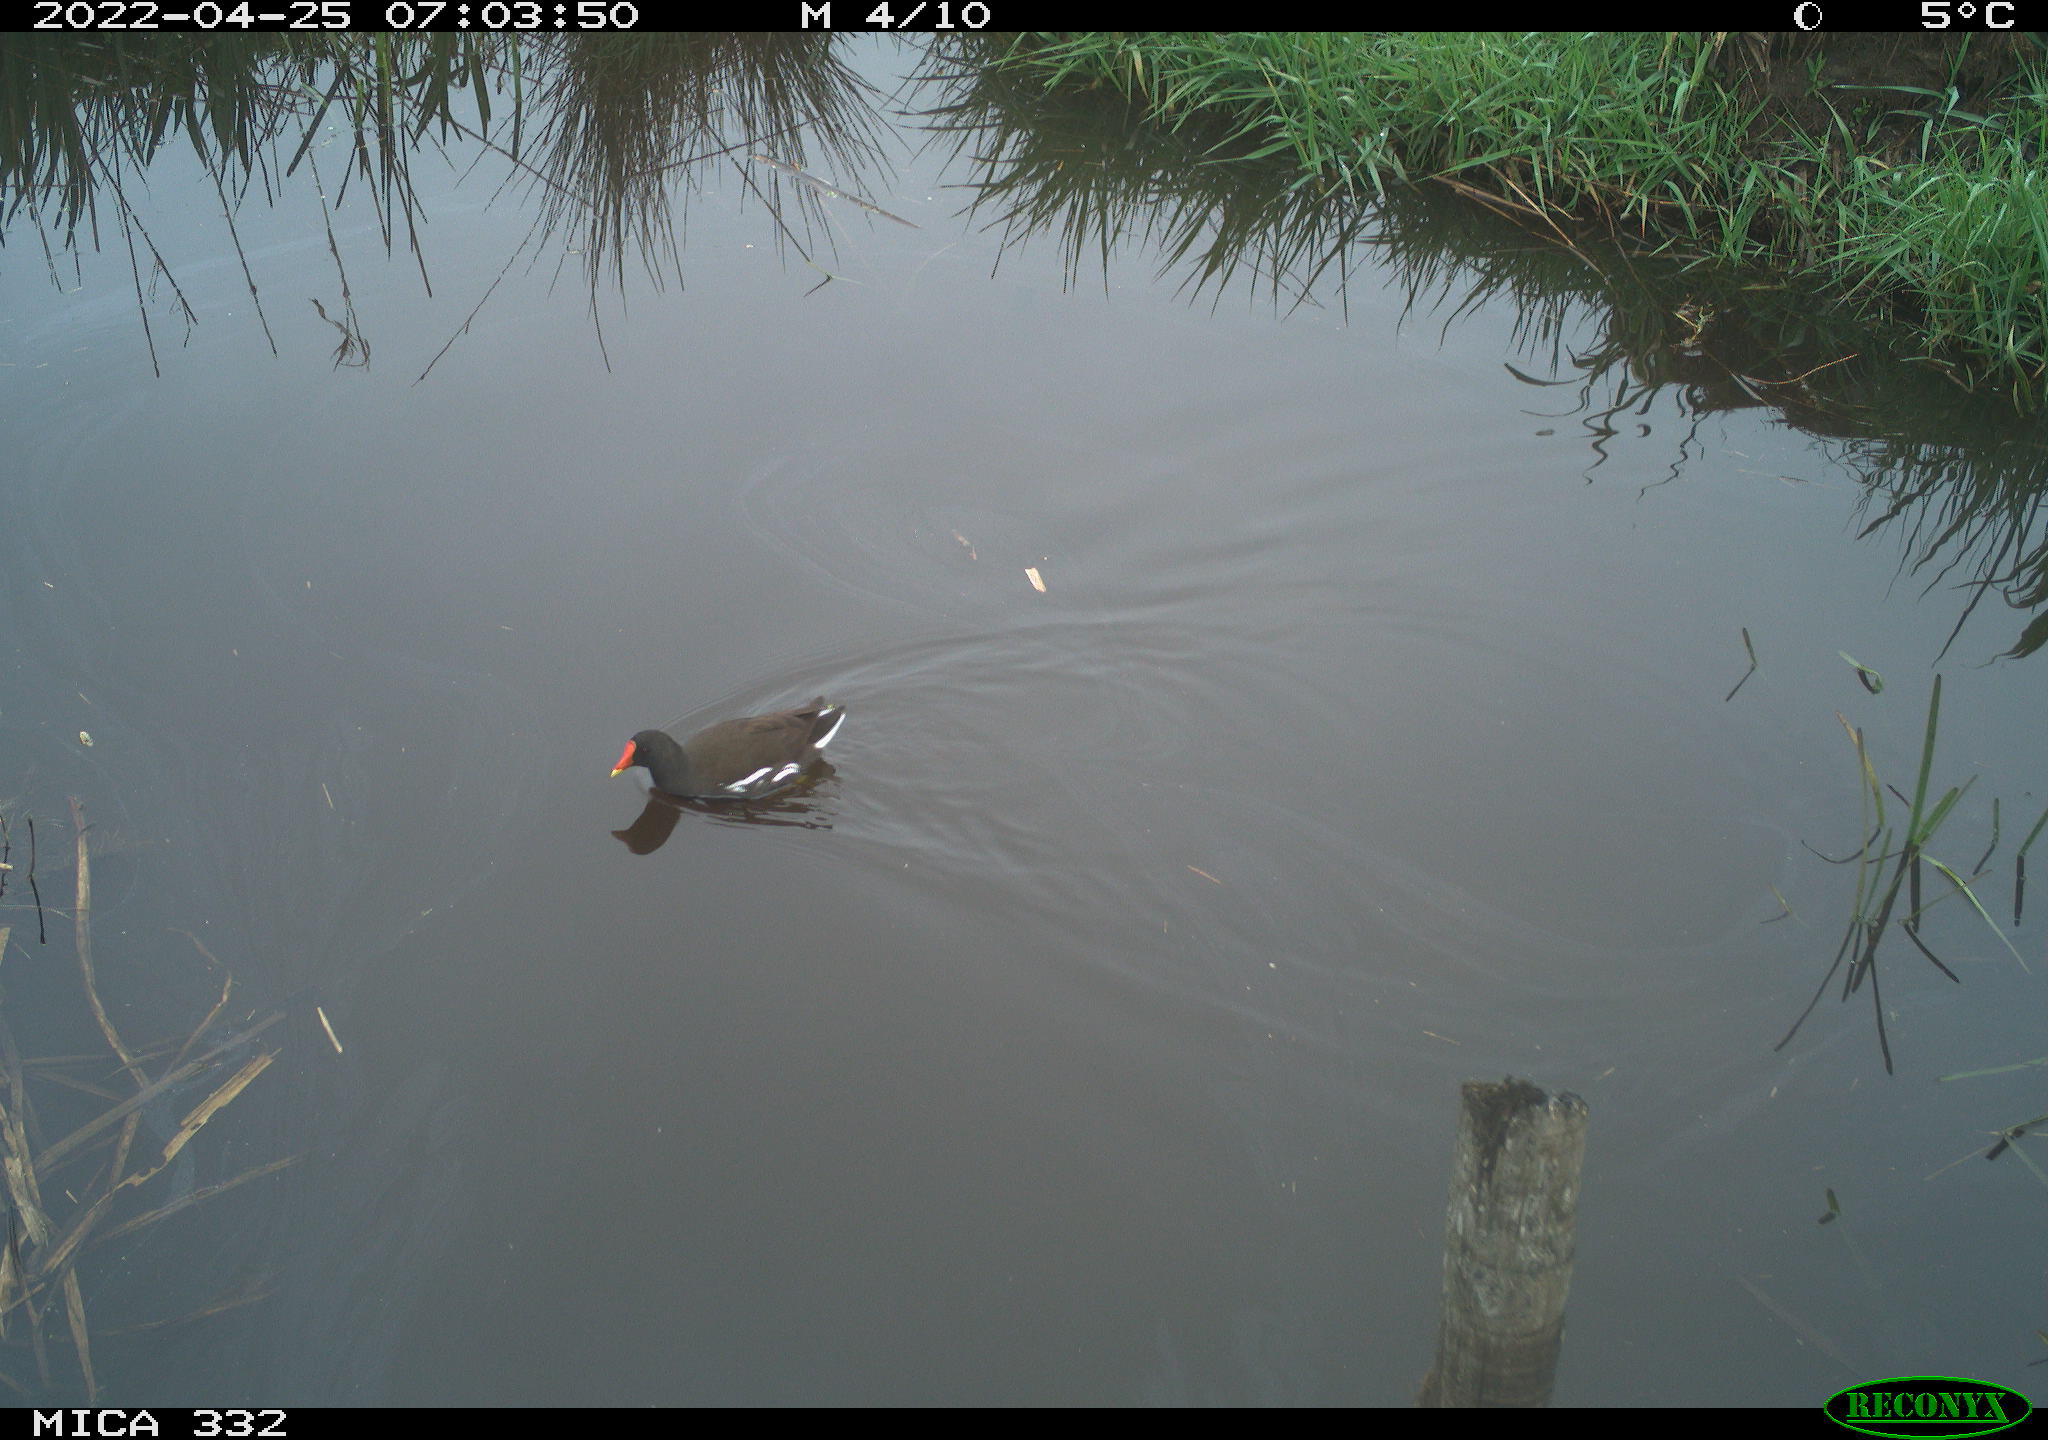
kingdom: Animalia
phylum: Chordata
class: Aves
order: Gruiformes
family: Rallidae
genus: Gallinula
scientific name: Gallinula chloropus
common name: Common moorhen
